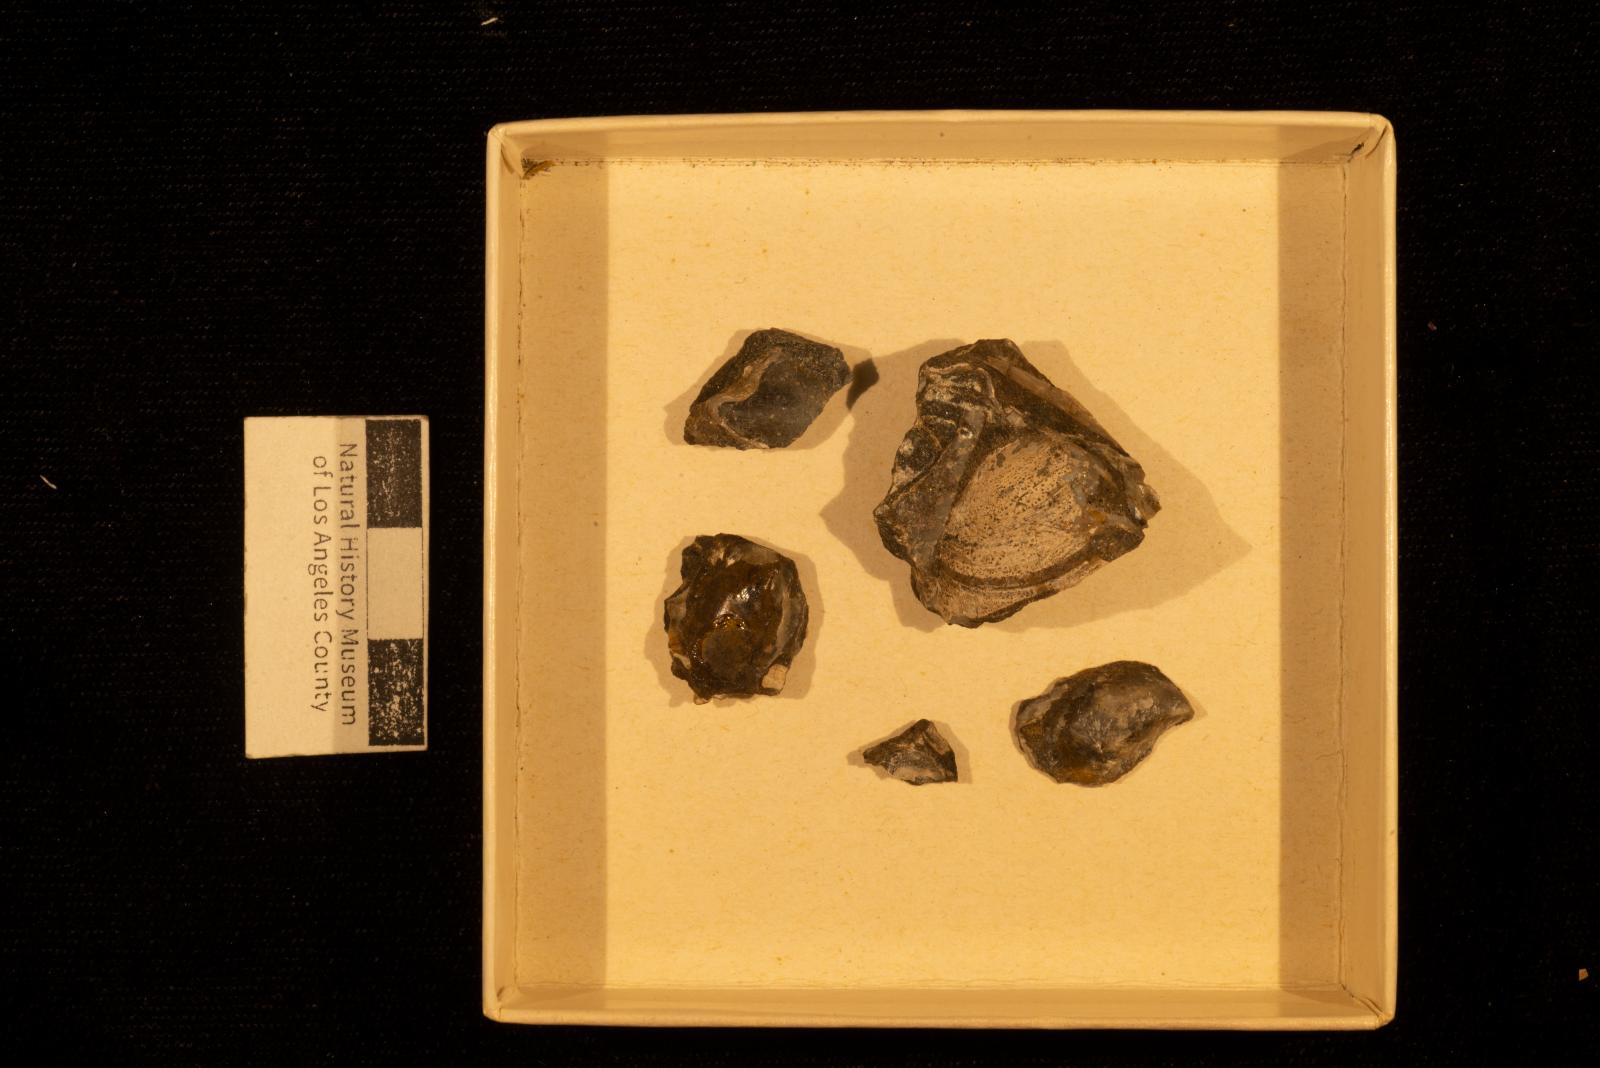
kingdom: Animalia
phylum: Mollusca
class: Bivalvia
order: Ostreida
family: Pteriidae
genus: Pteria
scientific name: Pteria pellucida
